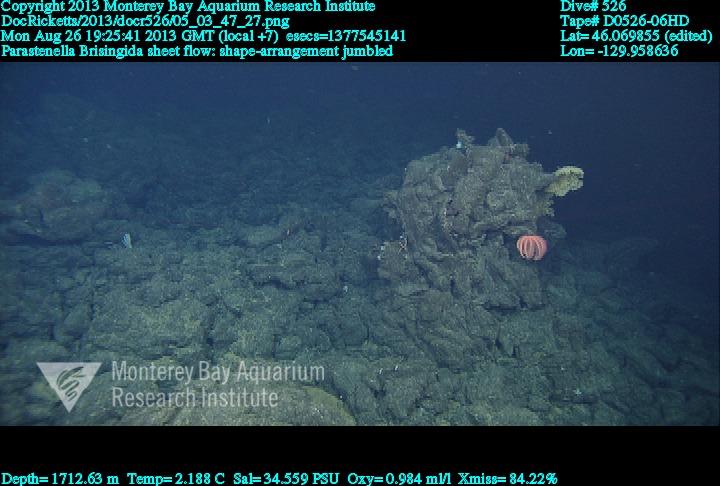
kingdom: Animalia
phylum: Cnidaria
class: Anthozoa
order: Scleralcyonacea
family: Primnoidae
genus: Parastenella
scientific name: Parastenella
